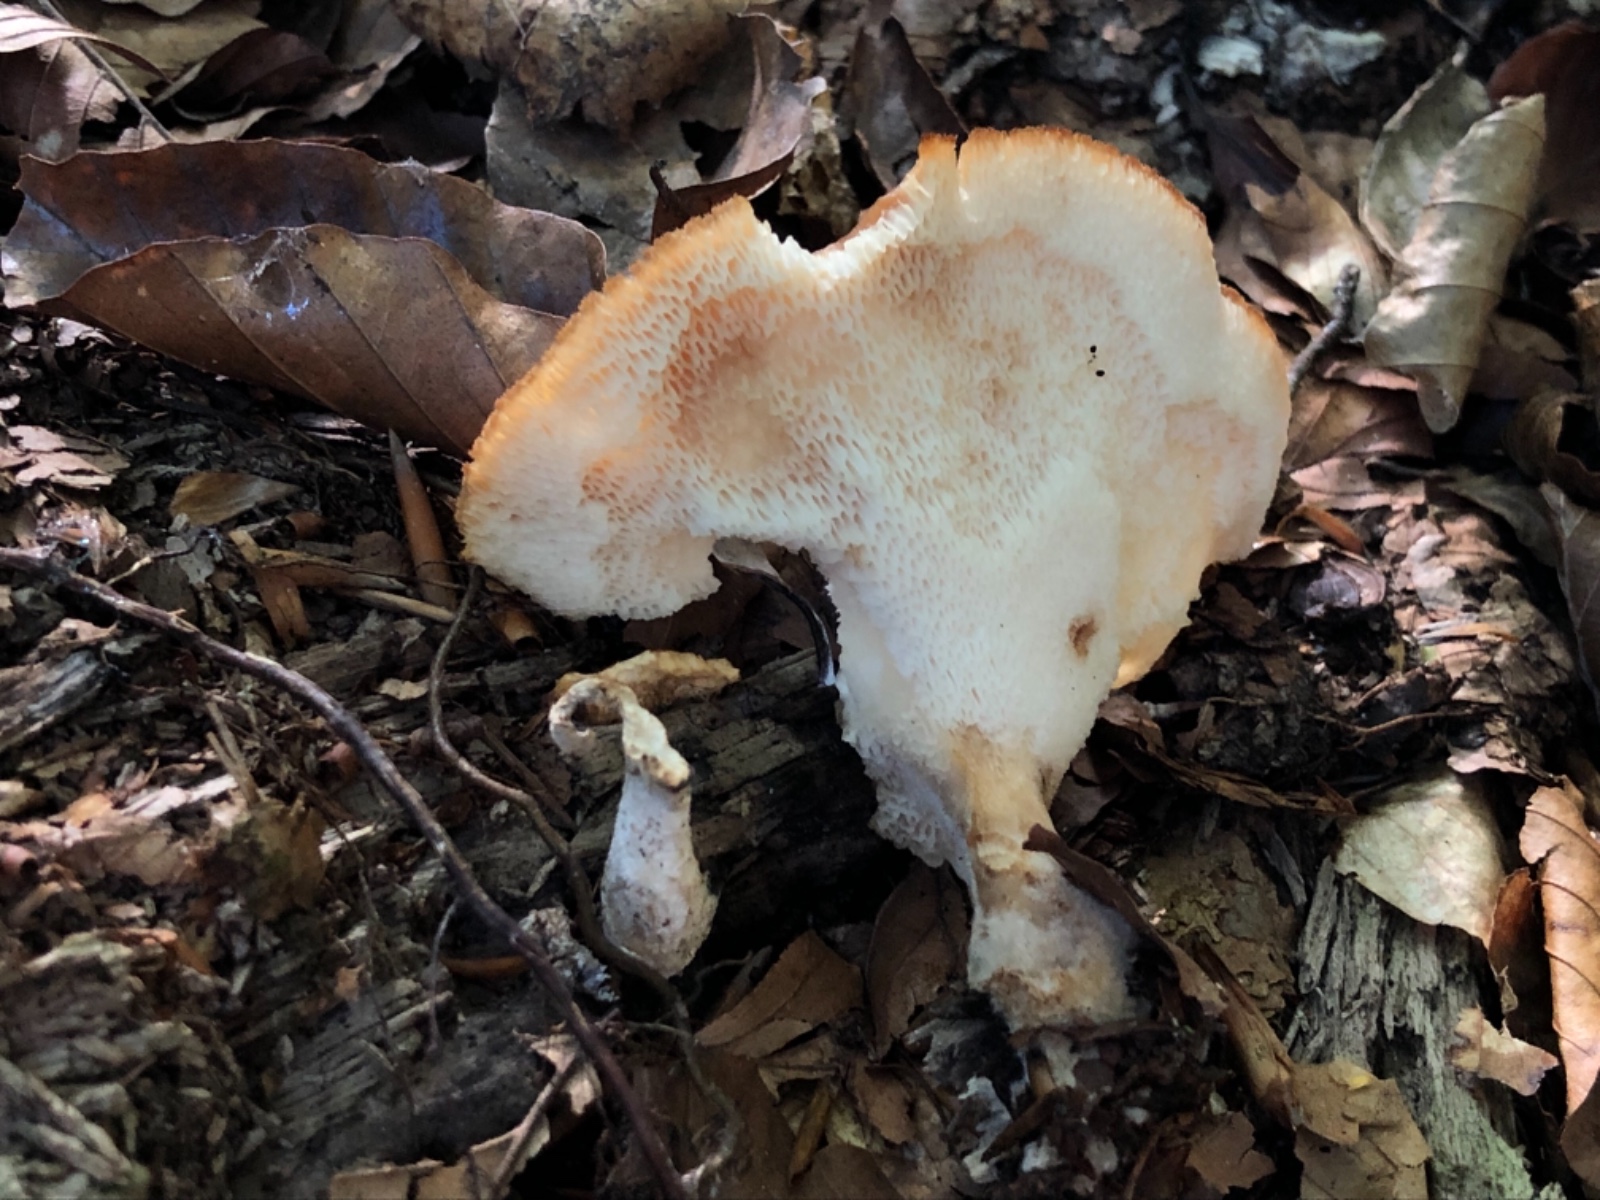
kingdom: Fungi
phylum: Basidiomycota
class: Agaricomycetes
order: Polyporales
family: Polyporaceae
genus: Polyporus
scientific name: Polyporus tuberaster
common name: knoldet stilkporesvamp
